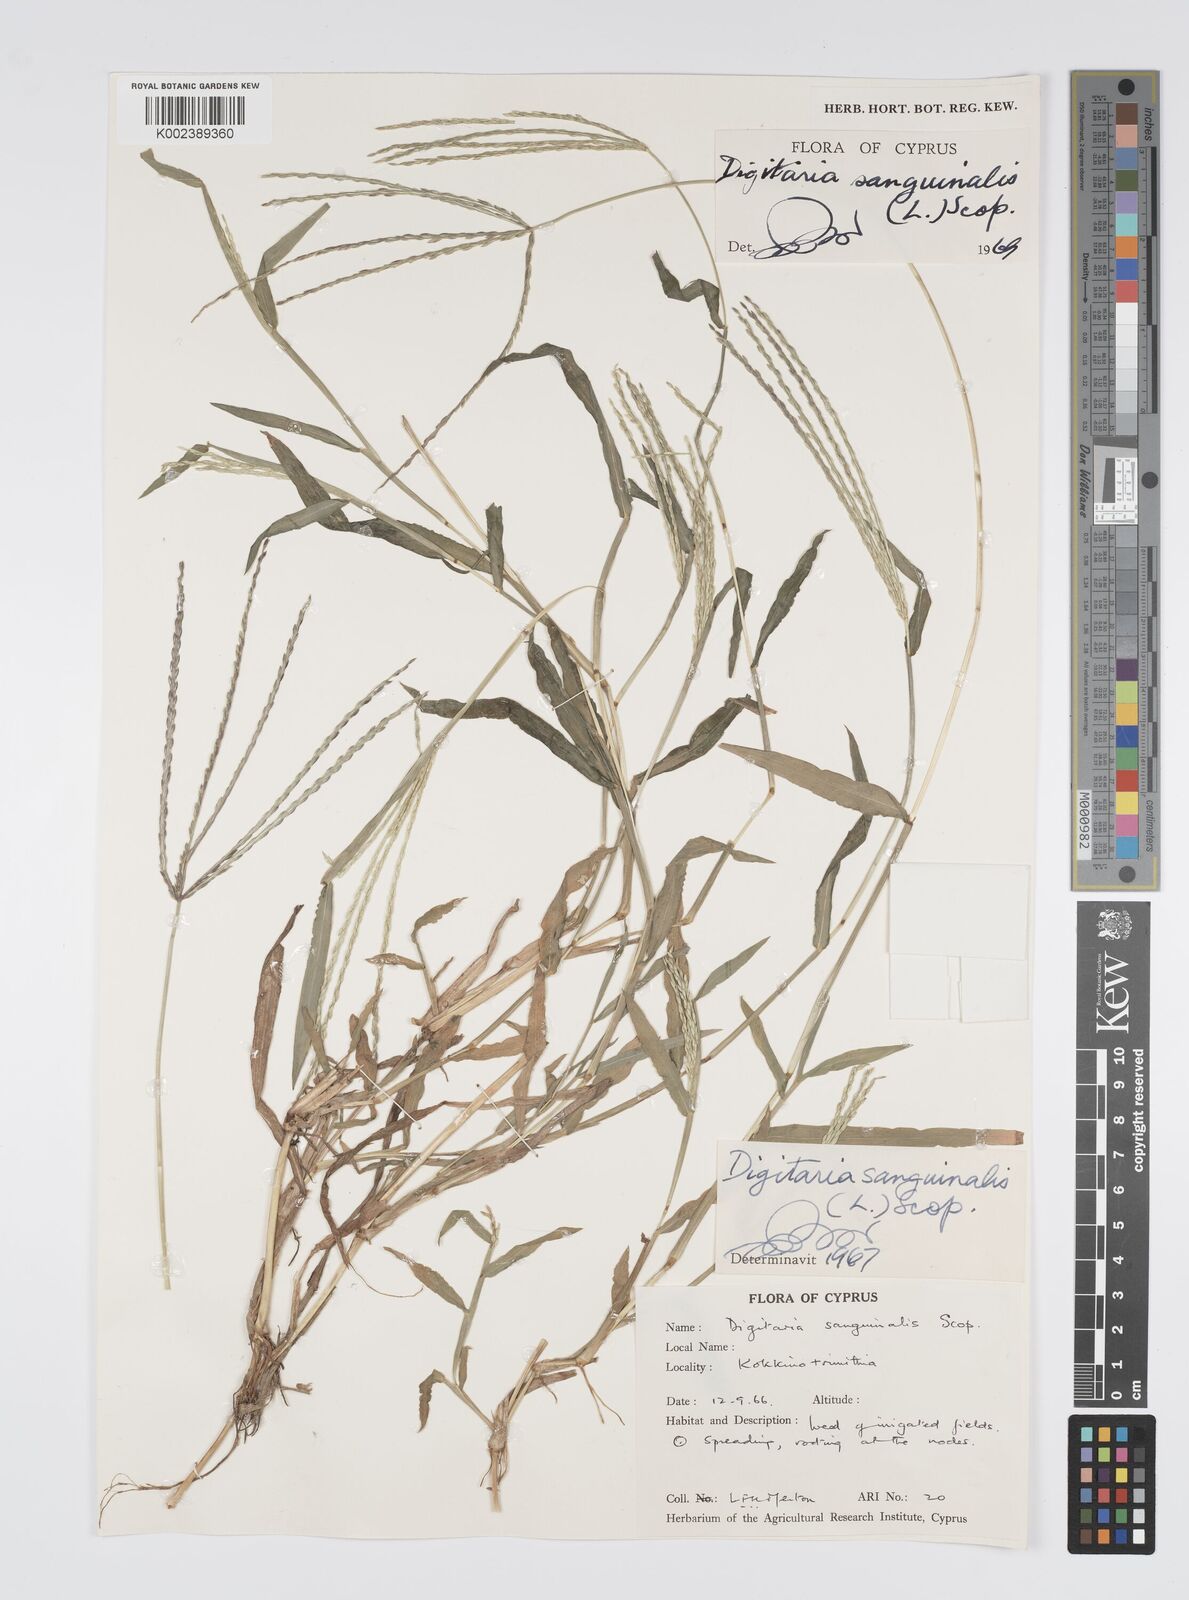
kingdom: Plantae
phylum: Tracheophyta
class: Liliopsida
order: Poales
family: Poaceae
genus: Digitaria
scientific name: Digitaria sanguinalis
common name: Hairy crabgrass
